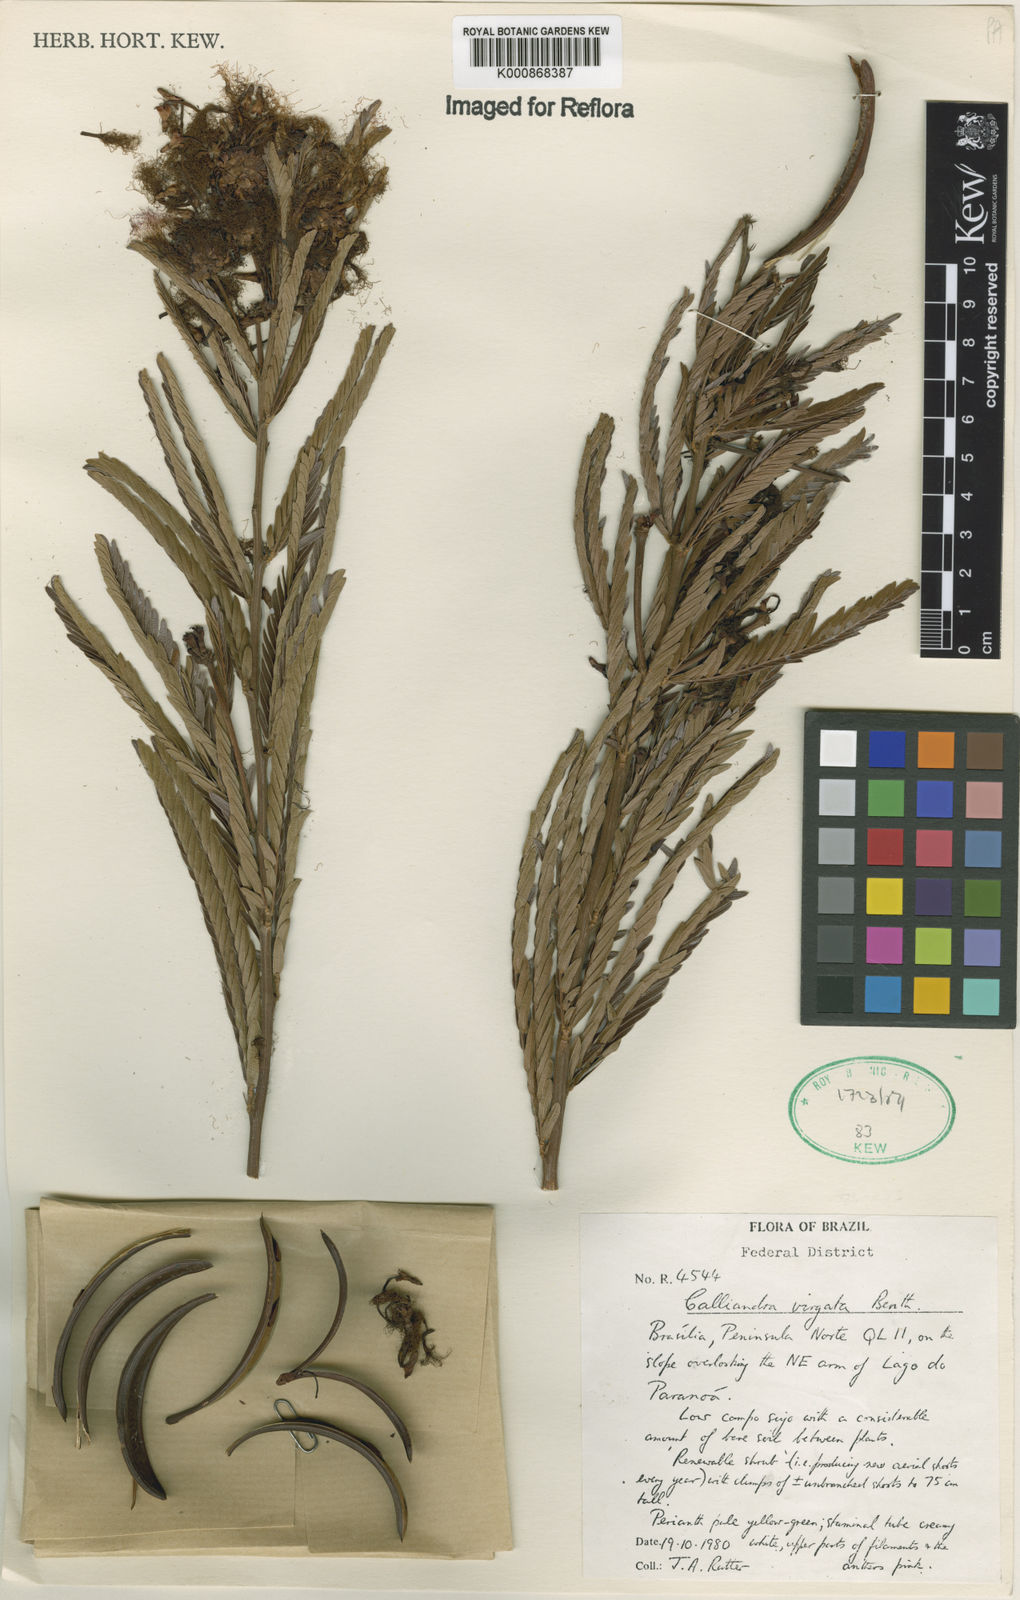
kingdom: Plantae
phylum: Tracheophyta
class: Magnoliopsida
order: Fabales
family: Fabaceae
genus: Calliandra
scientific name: Calliandra virgata
